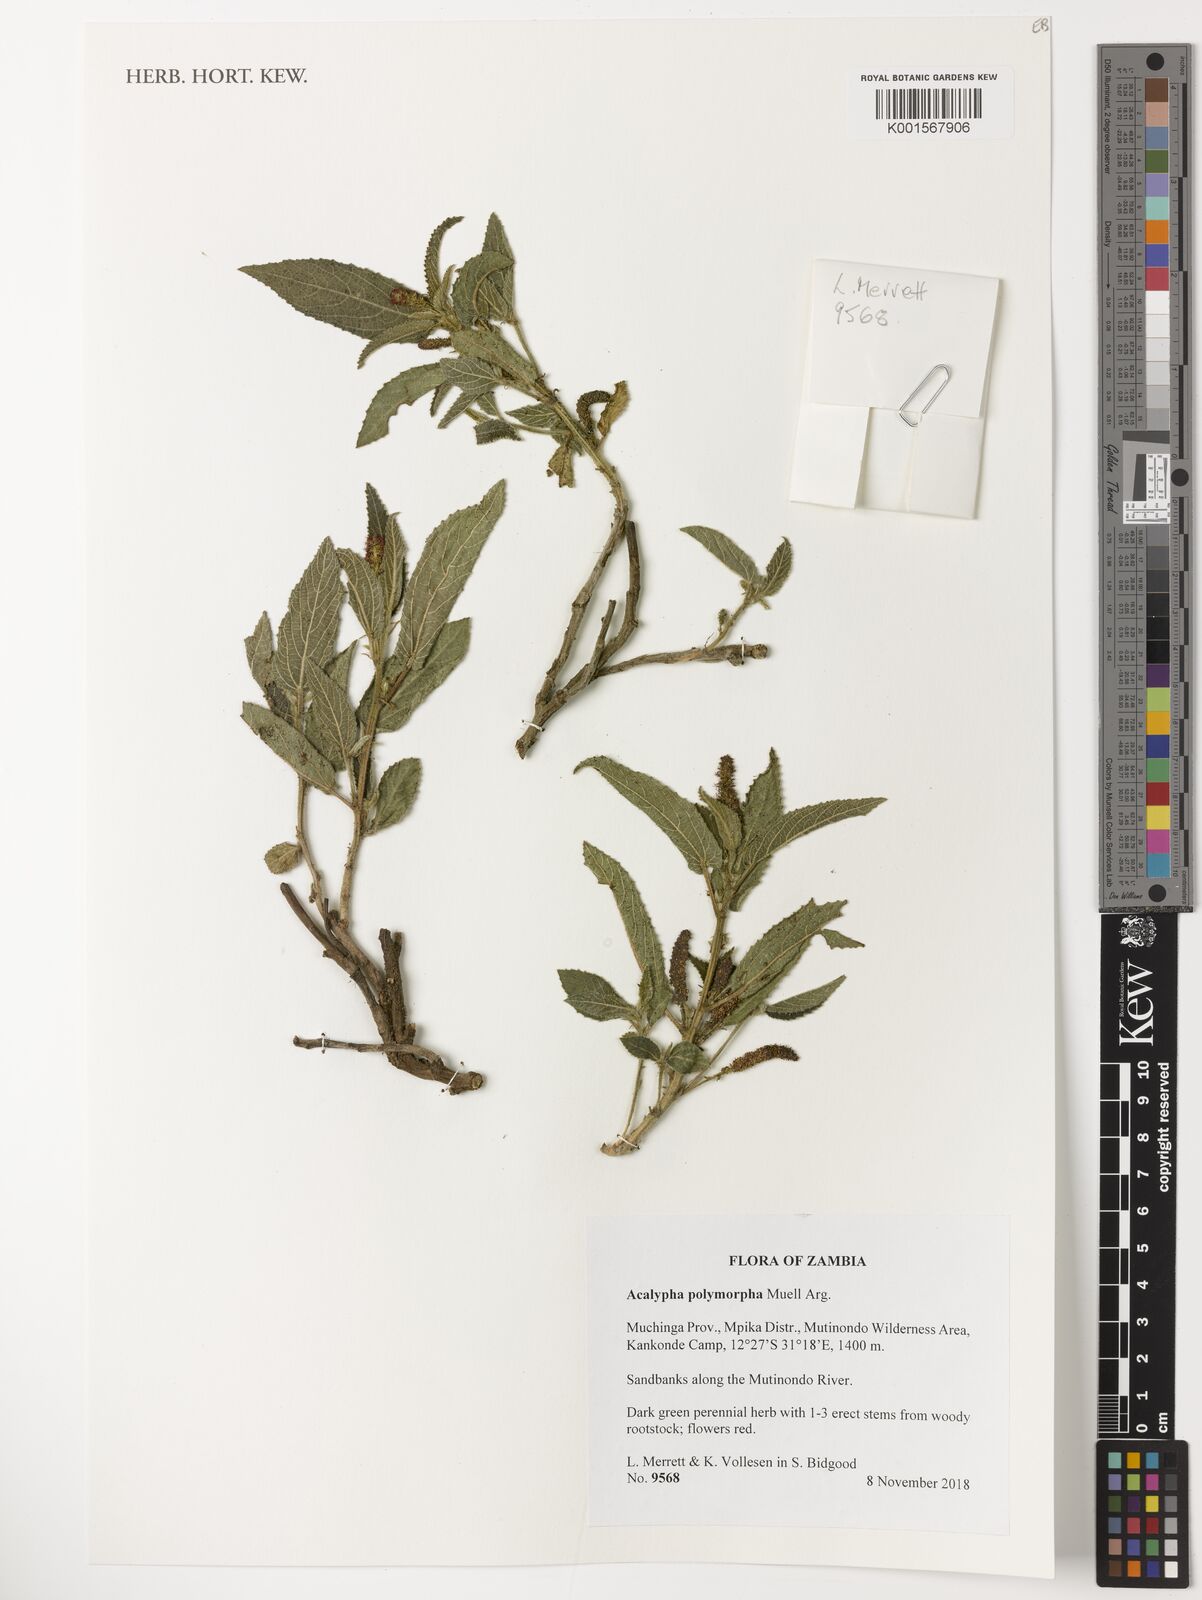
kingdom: Plantae
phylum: Tracheophyta
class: Magnoliopsida
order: Malpighiales
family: Euphorbiaceae
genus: Acalypha
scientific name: Acalypha polymorpha
